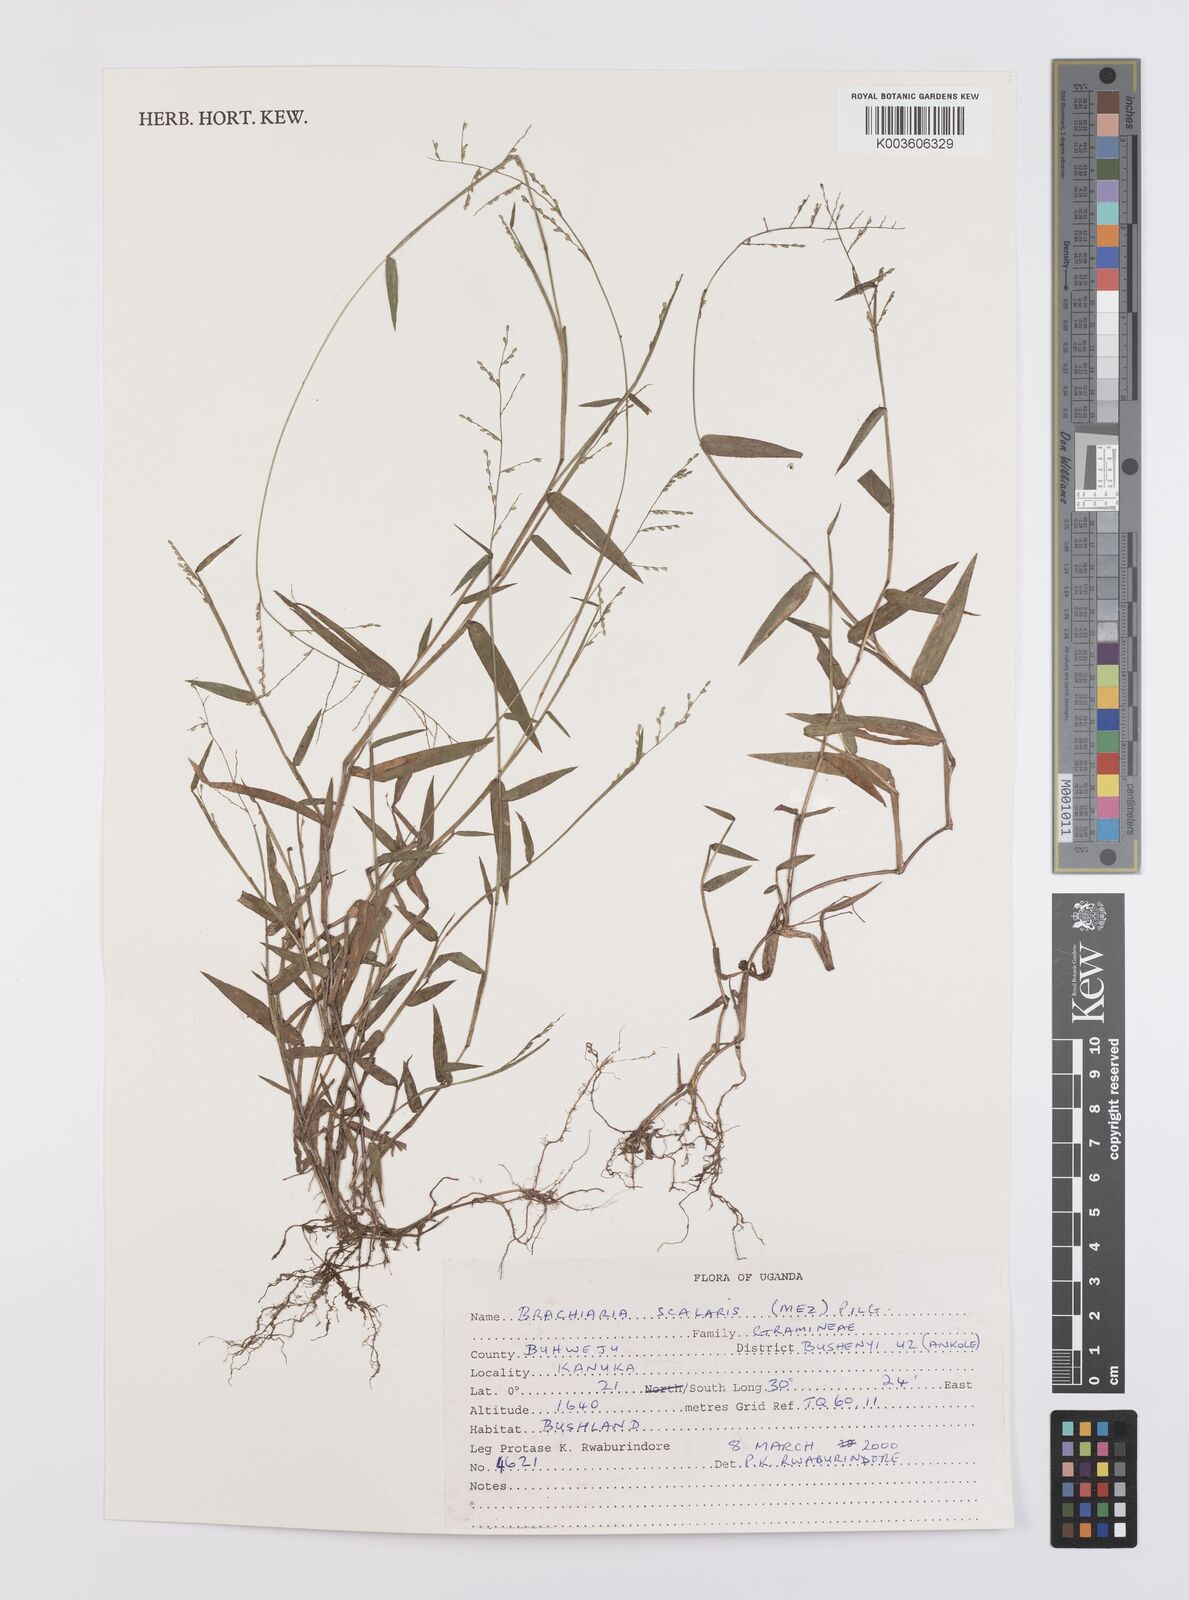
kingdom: Plantae
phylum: Tracheophyta
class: Liliopsida
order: Poales
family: Poaceae
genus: Urochloa
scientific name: Urochloa comata
